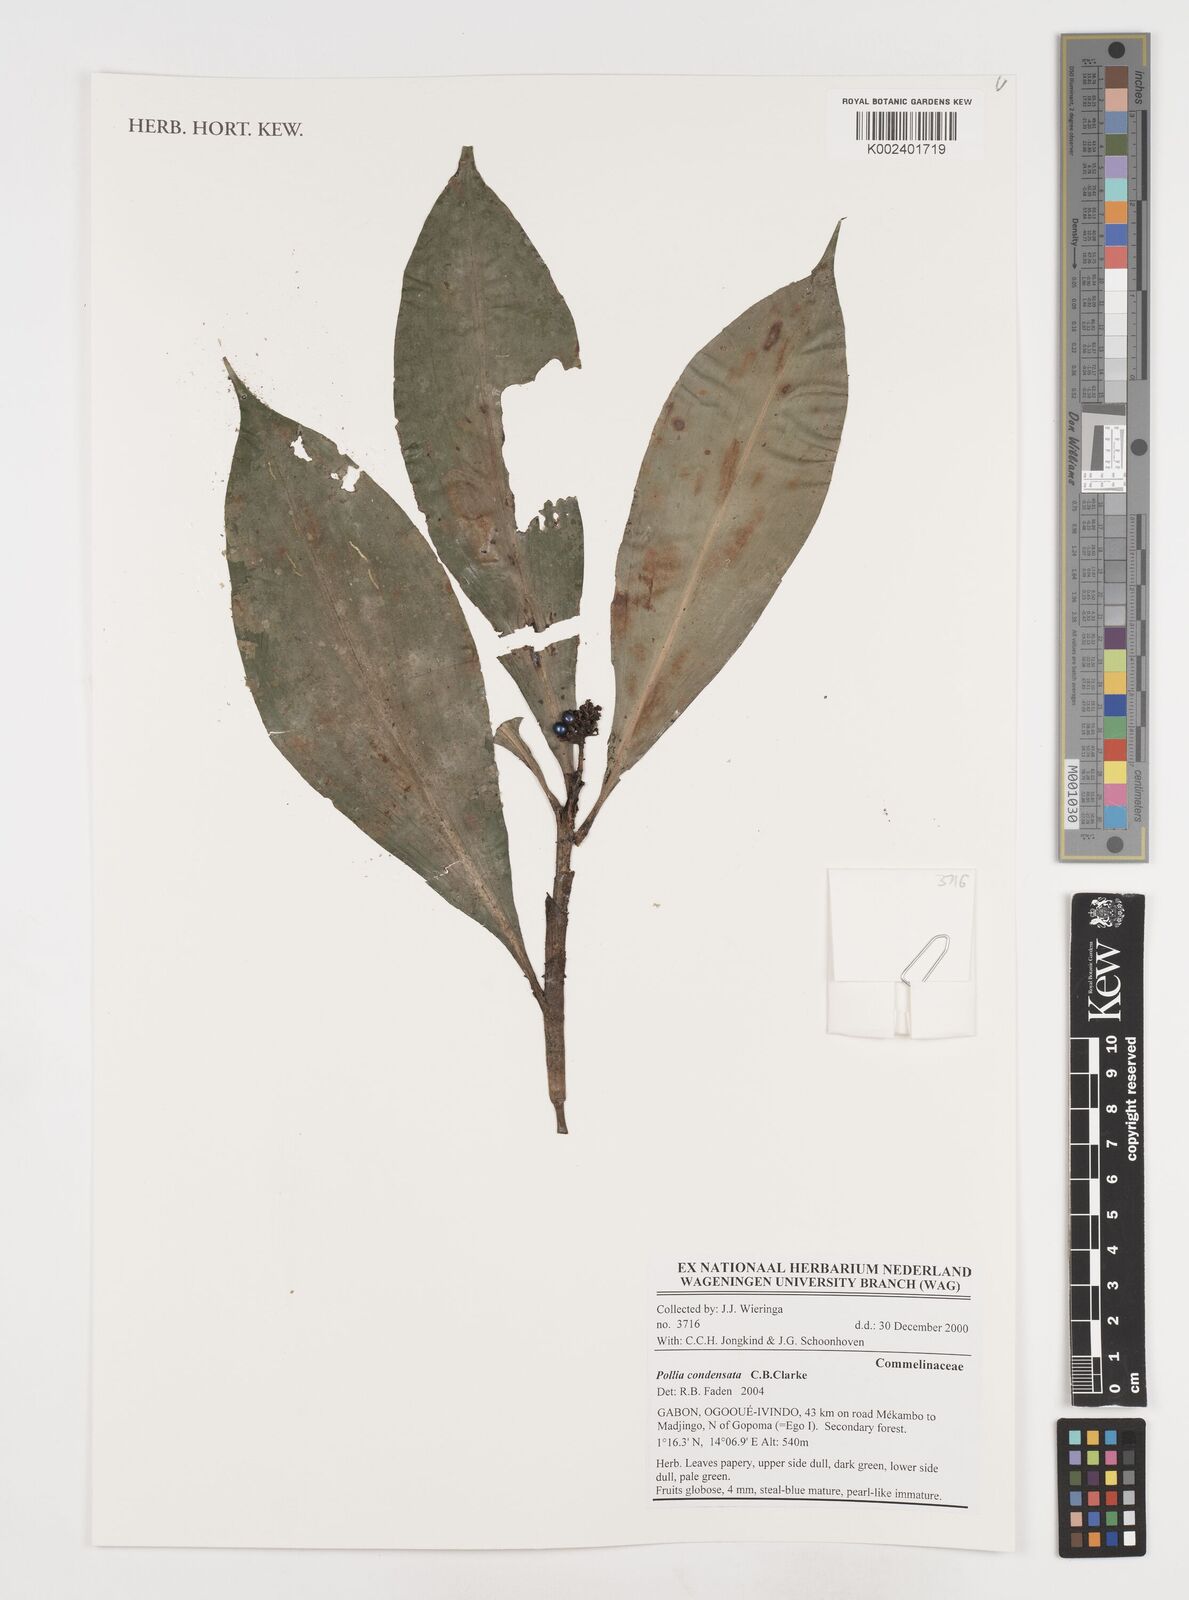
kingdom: Plantae
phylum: Tracheophyta
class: Liliopsida
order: Commelinales
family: Commelinaceae
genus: Pollia
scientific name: Pollia condensata
